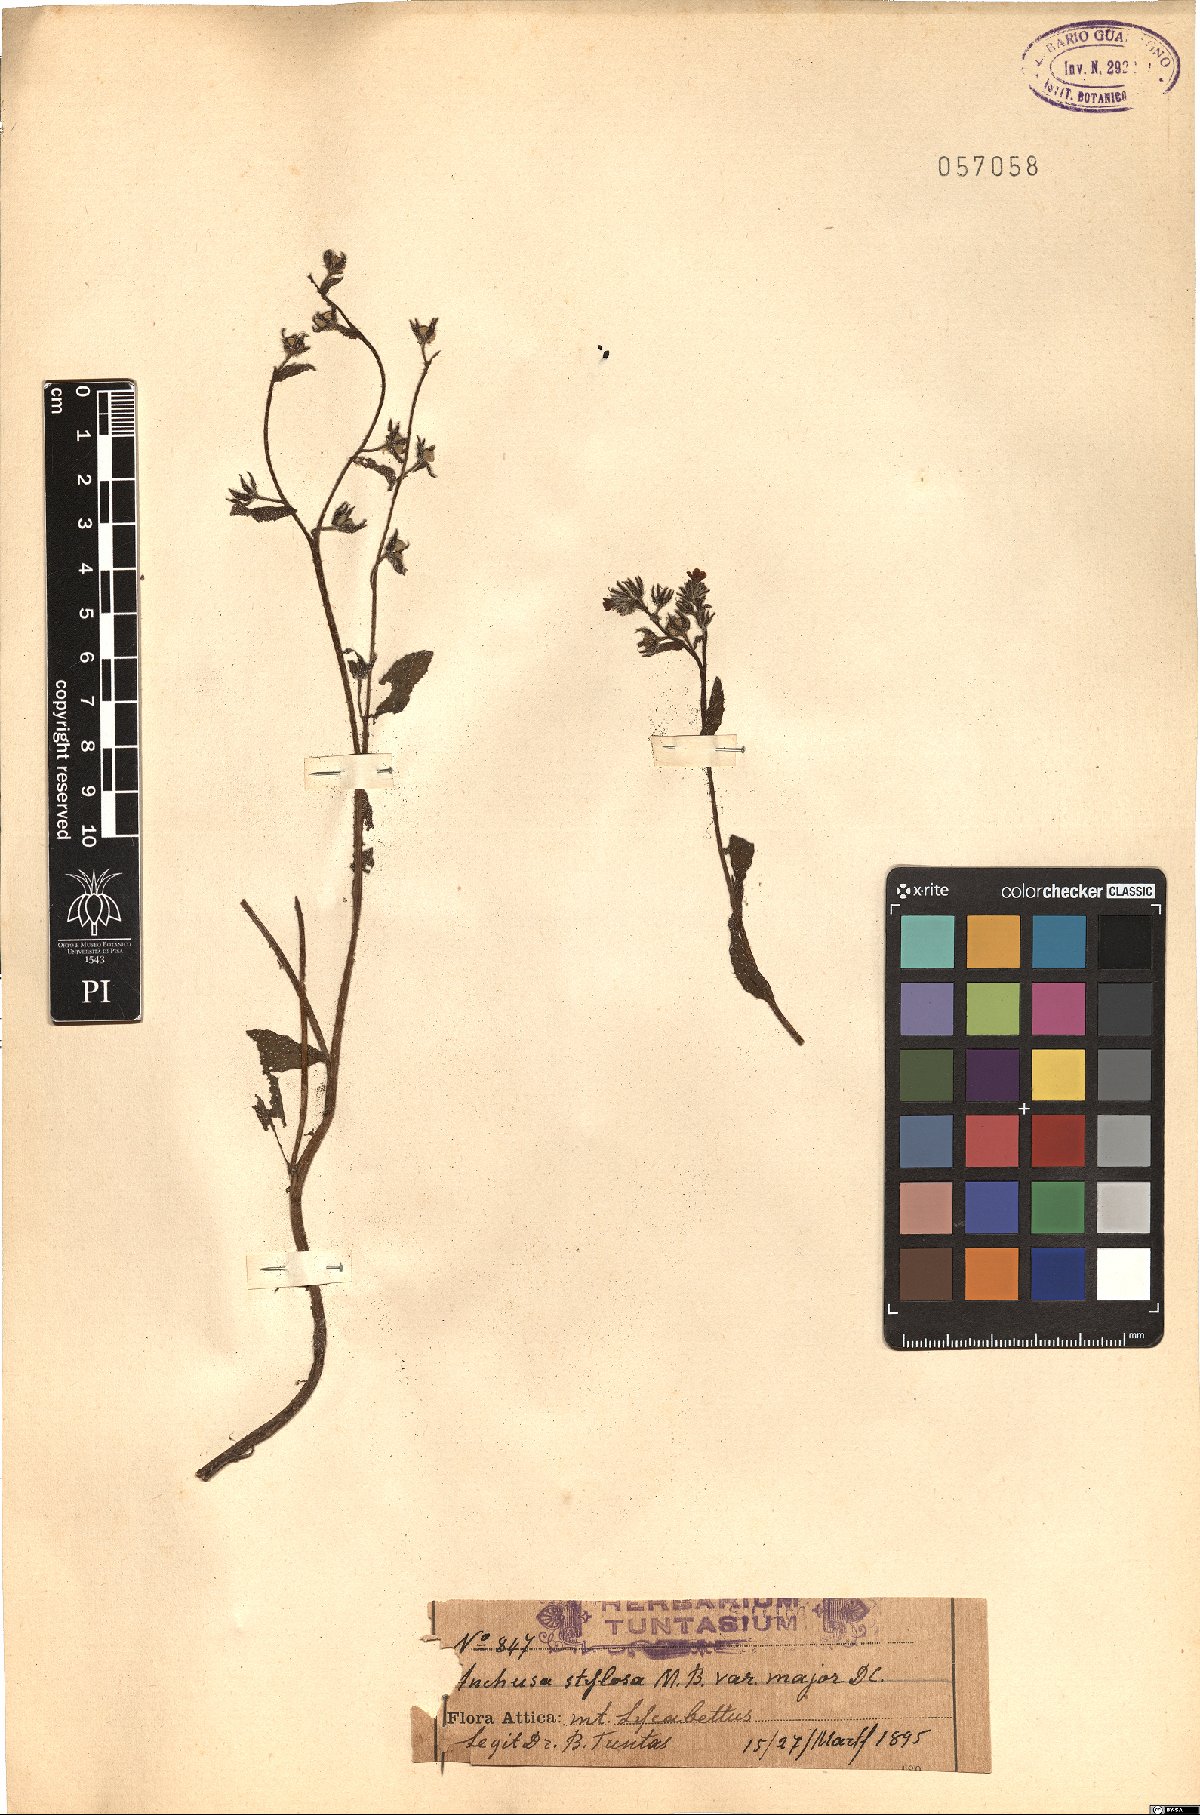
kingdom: Plantae
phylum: Tracheophyta
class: Magnoliopsida
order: Boraginales
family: Boraginaceae
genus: Anchusa
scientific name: Anchusa stylosa
